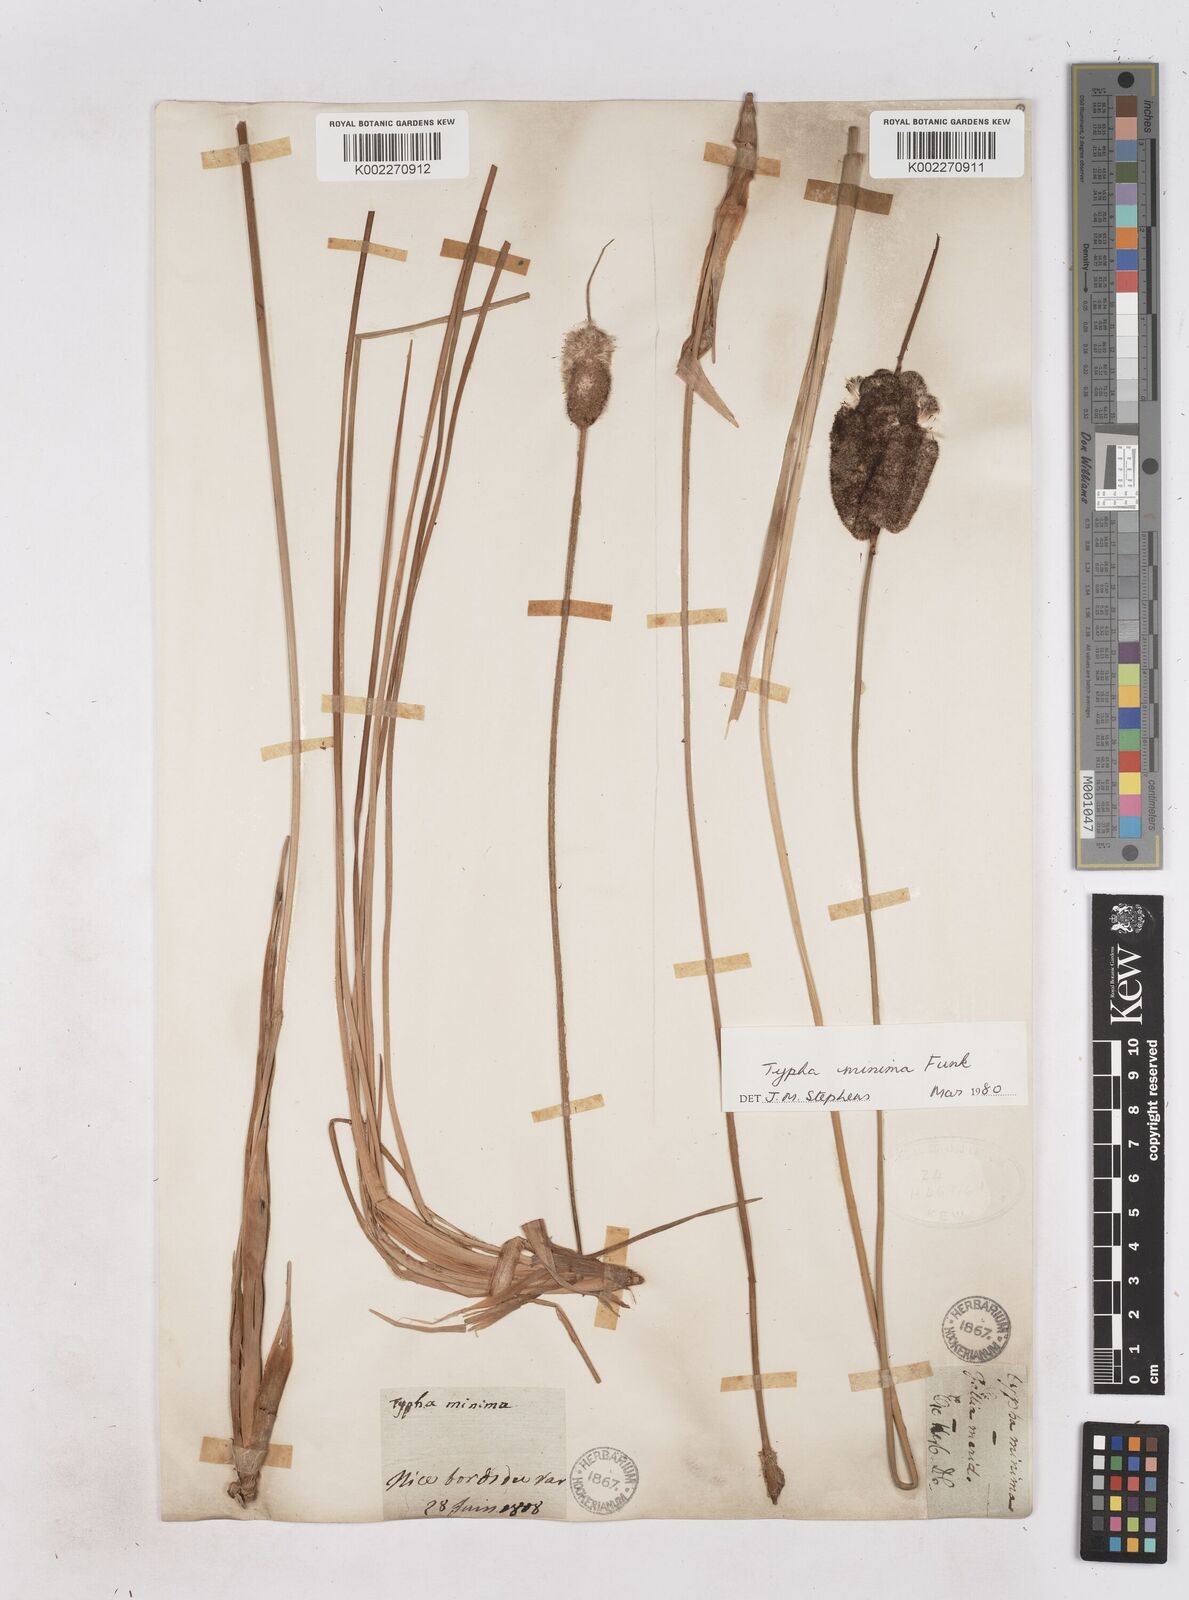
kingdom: Plantae
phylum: Tracheophyta
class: Liliopsida
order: Poales
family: Typhaceae
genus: Typha
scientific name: Typha
